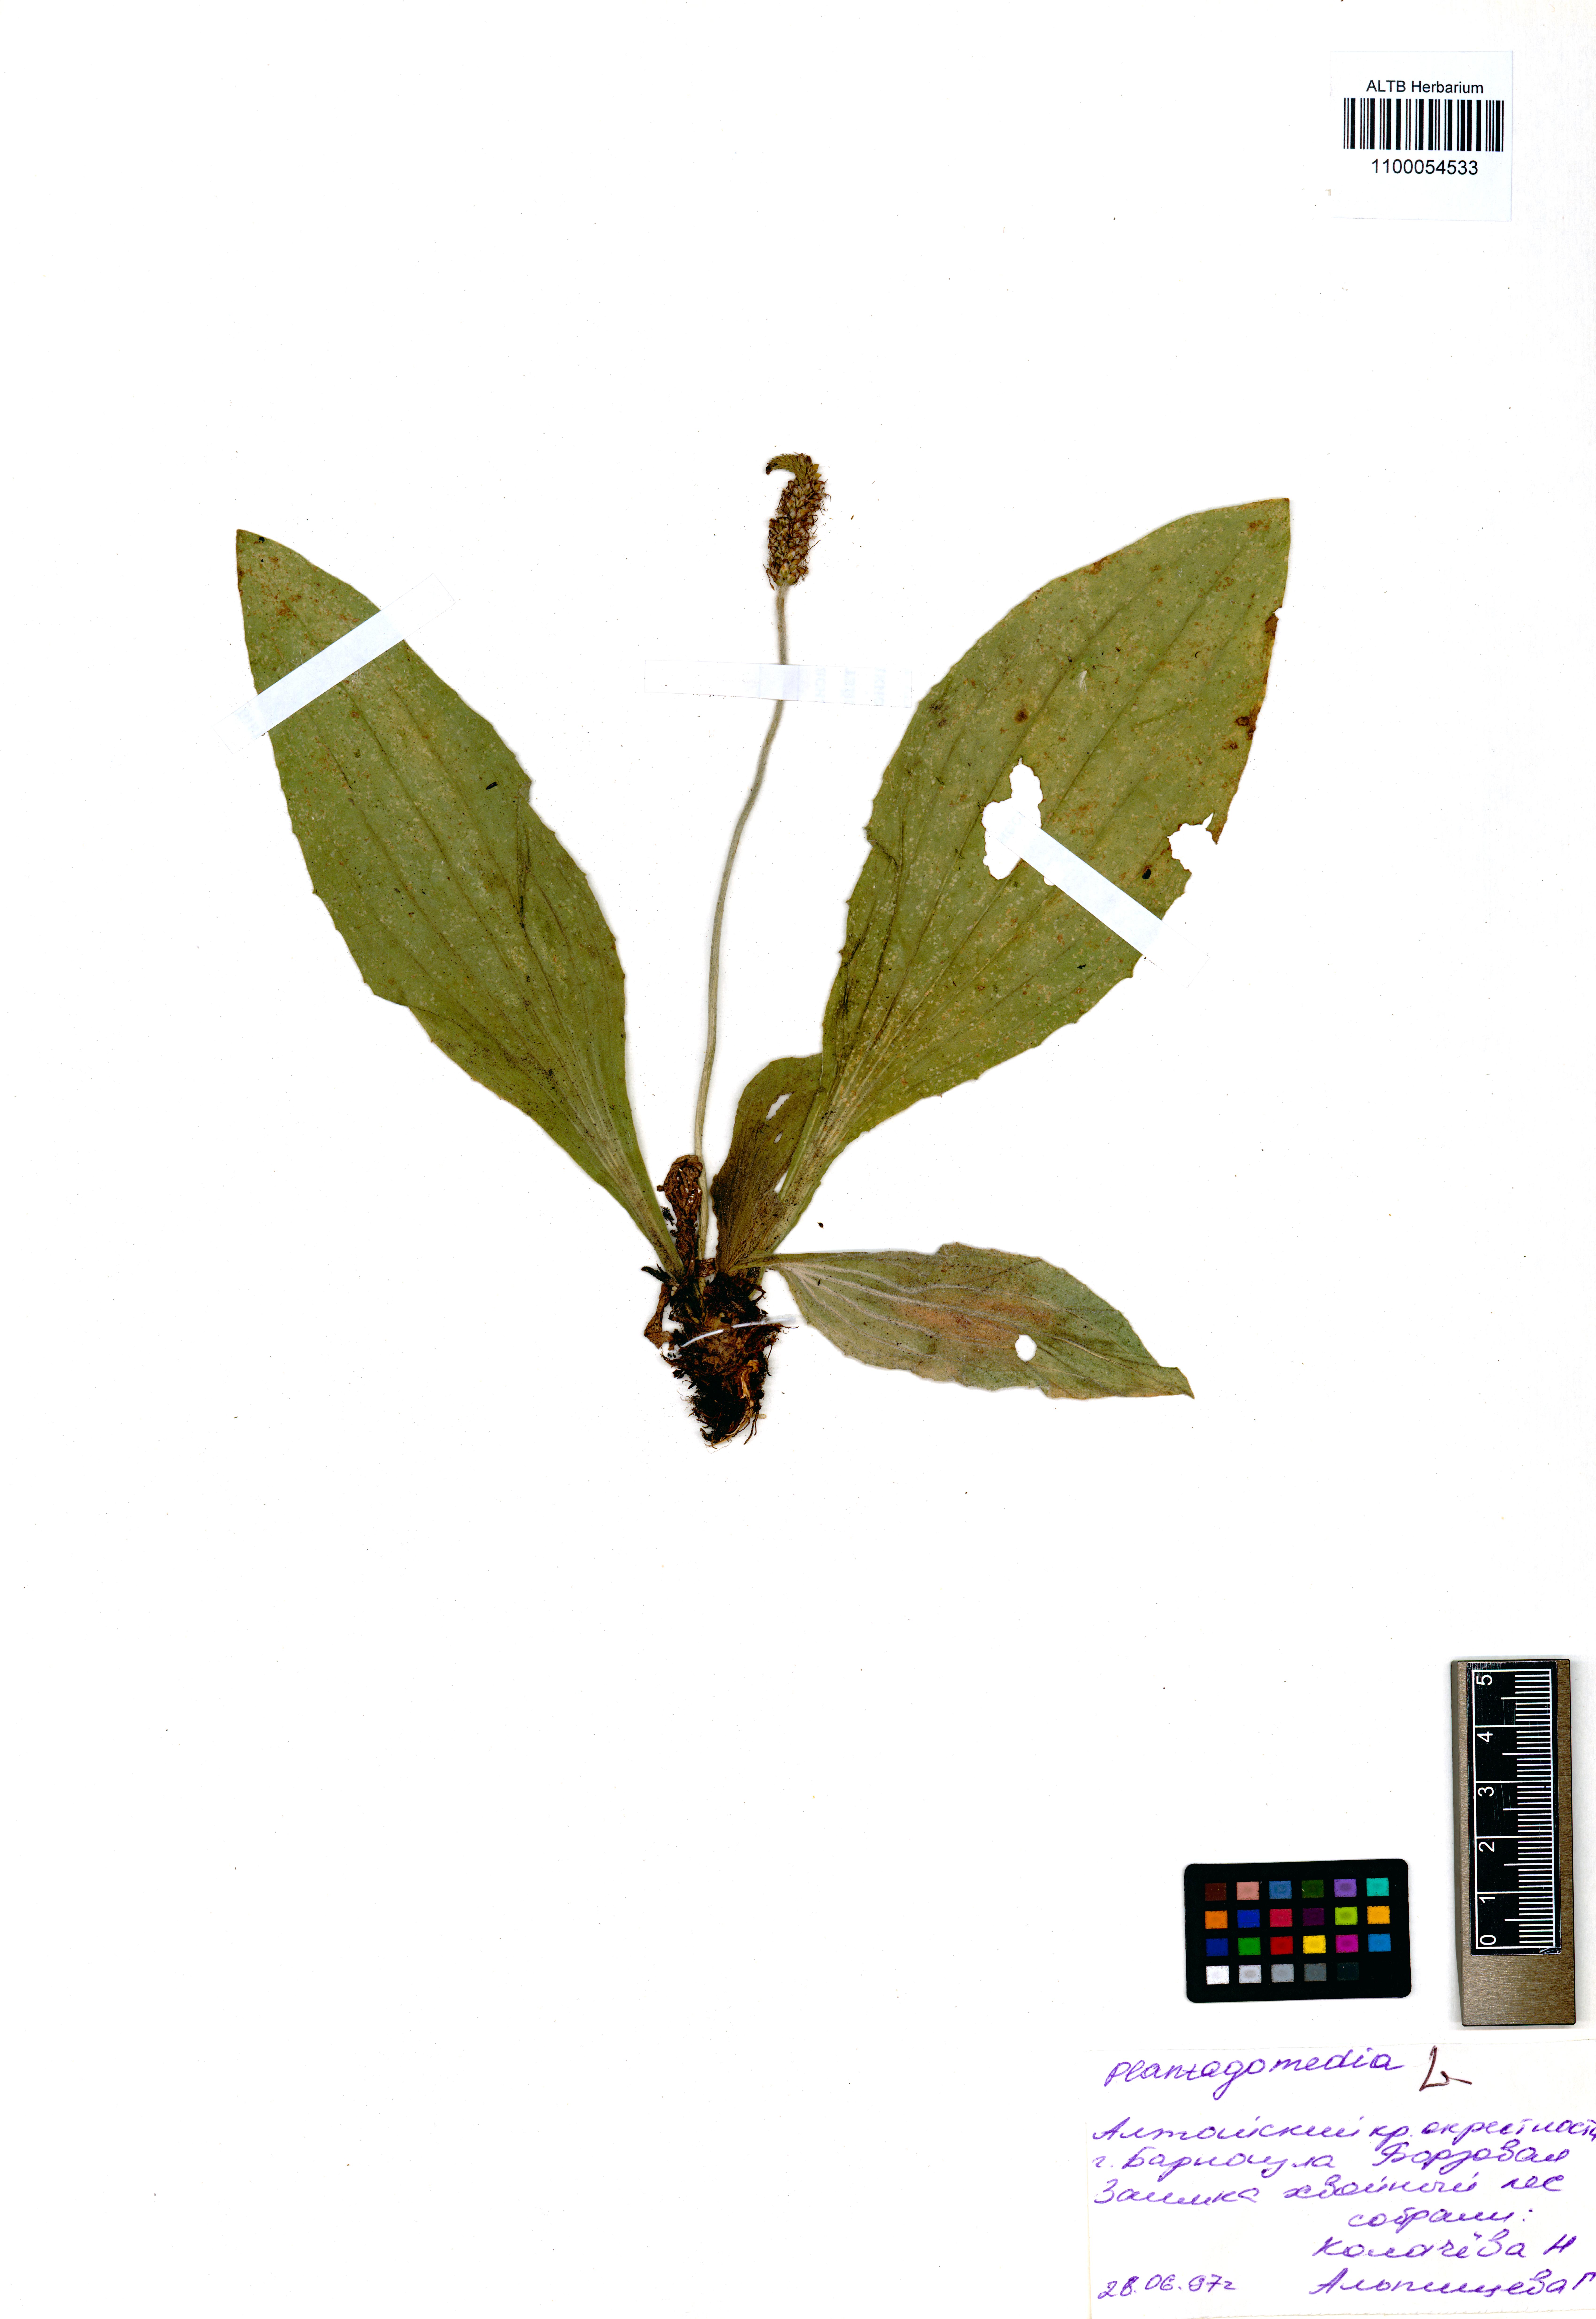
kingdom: Plantae
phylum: Tracheophyta
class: Magnoliopsida
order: Lamiales
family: Plantaginaceae
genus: Plantago
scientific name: Plantago media
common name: Hoary plantain
